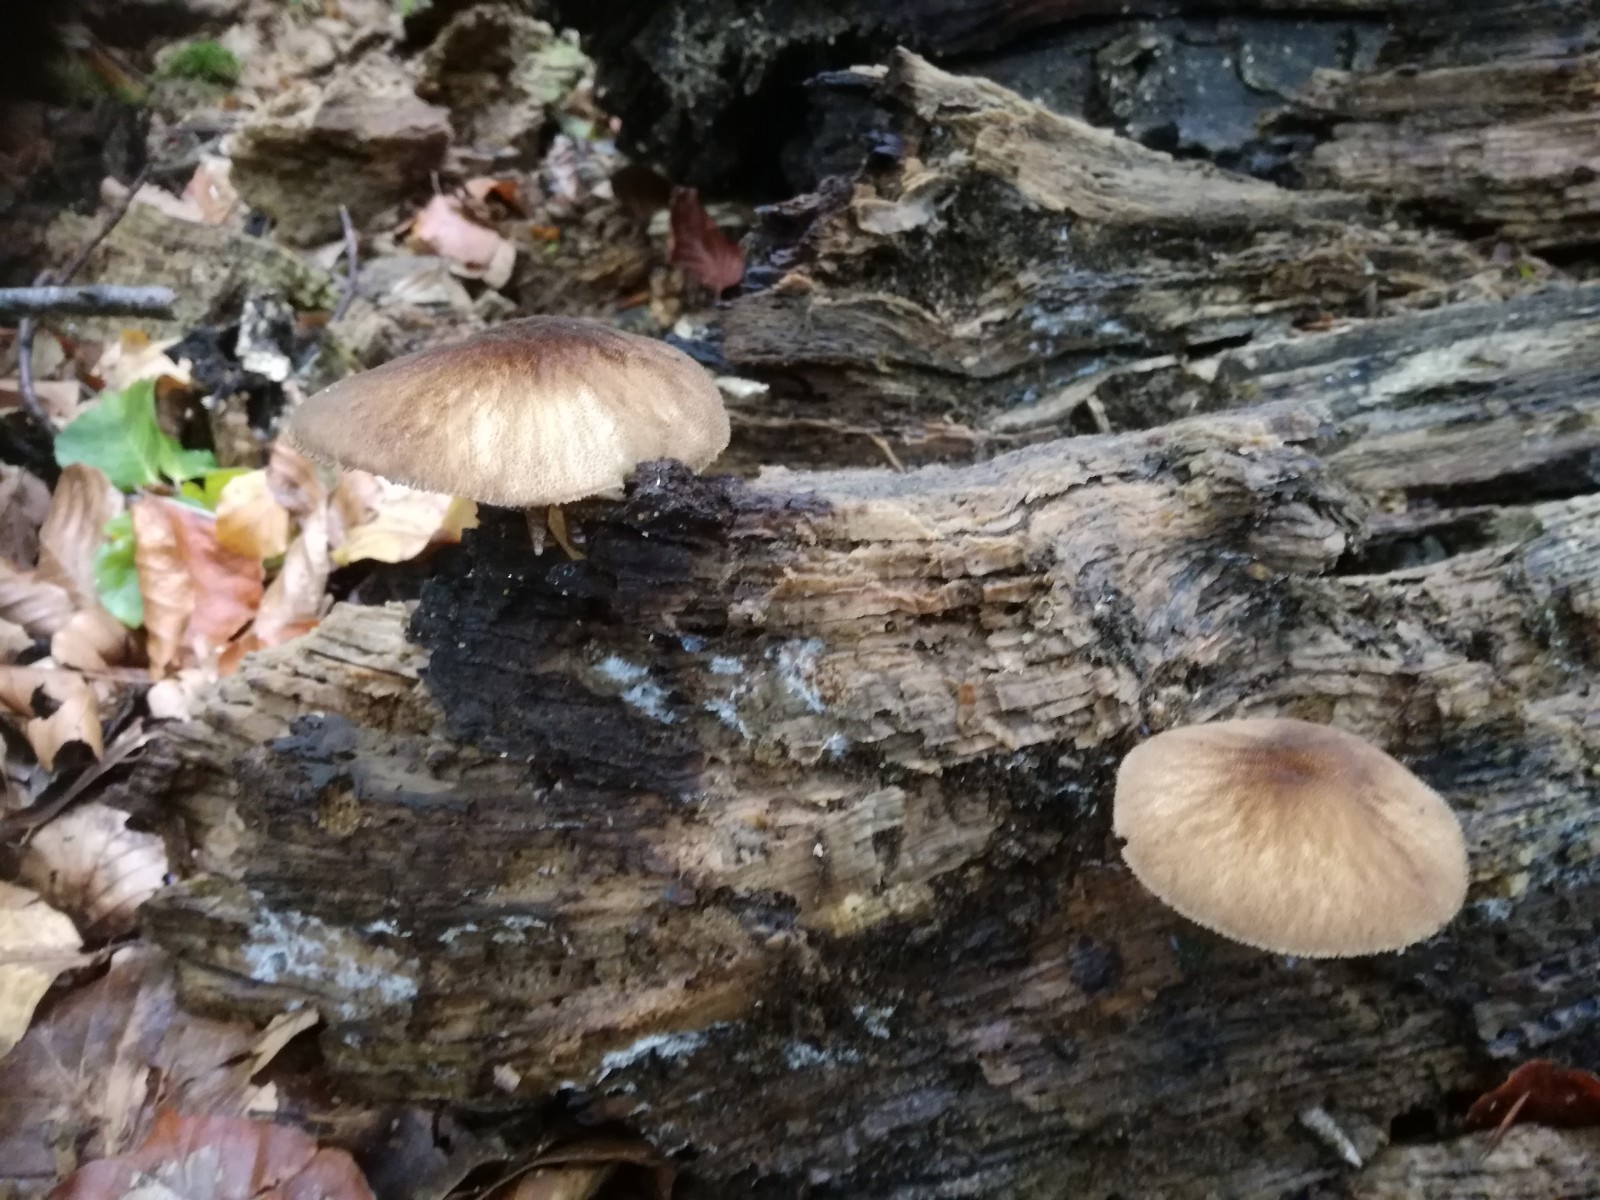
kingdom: Fungi
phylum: Basidiomycota
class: Agaricomycetes
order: Agaricales
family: Pluteaceae
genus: Pluteus
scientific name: Pluteus umbrosus
